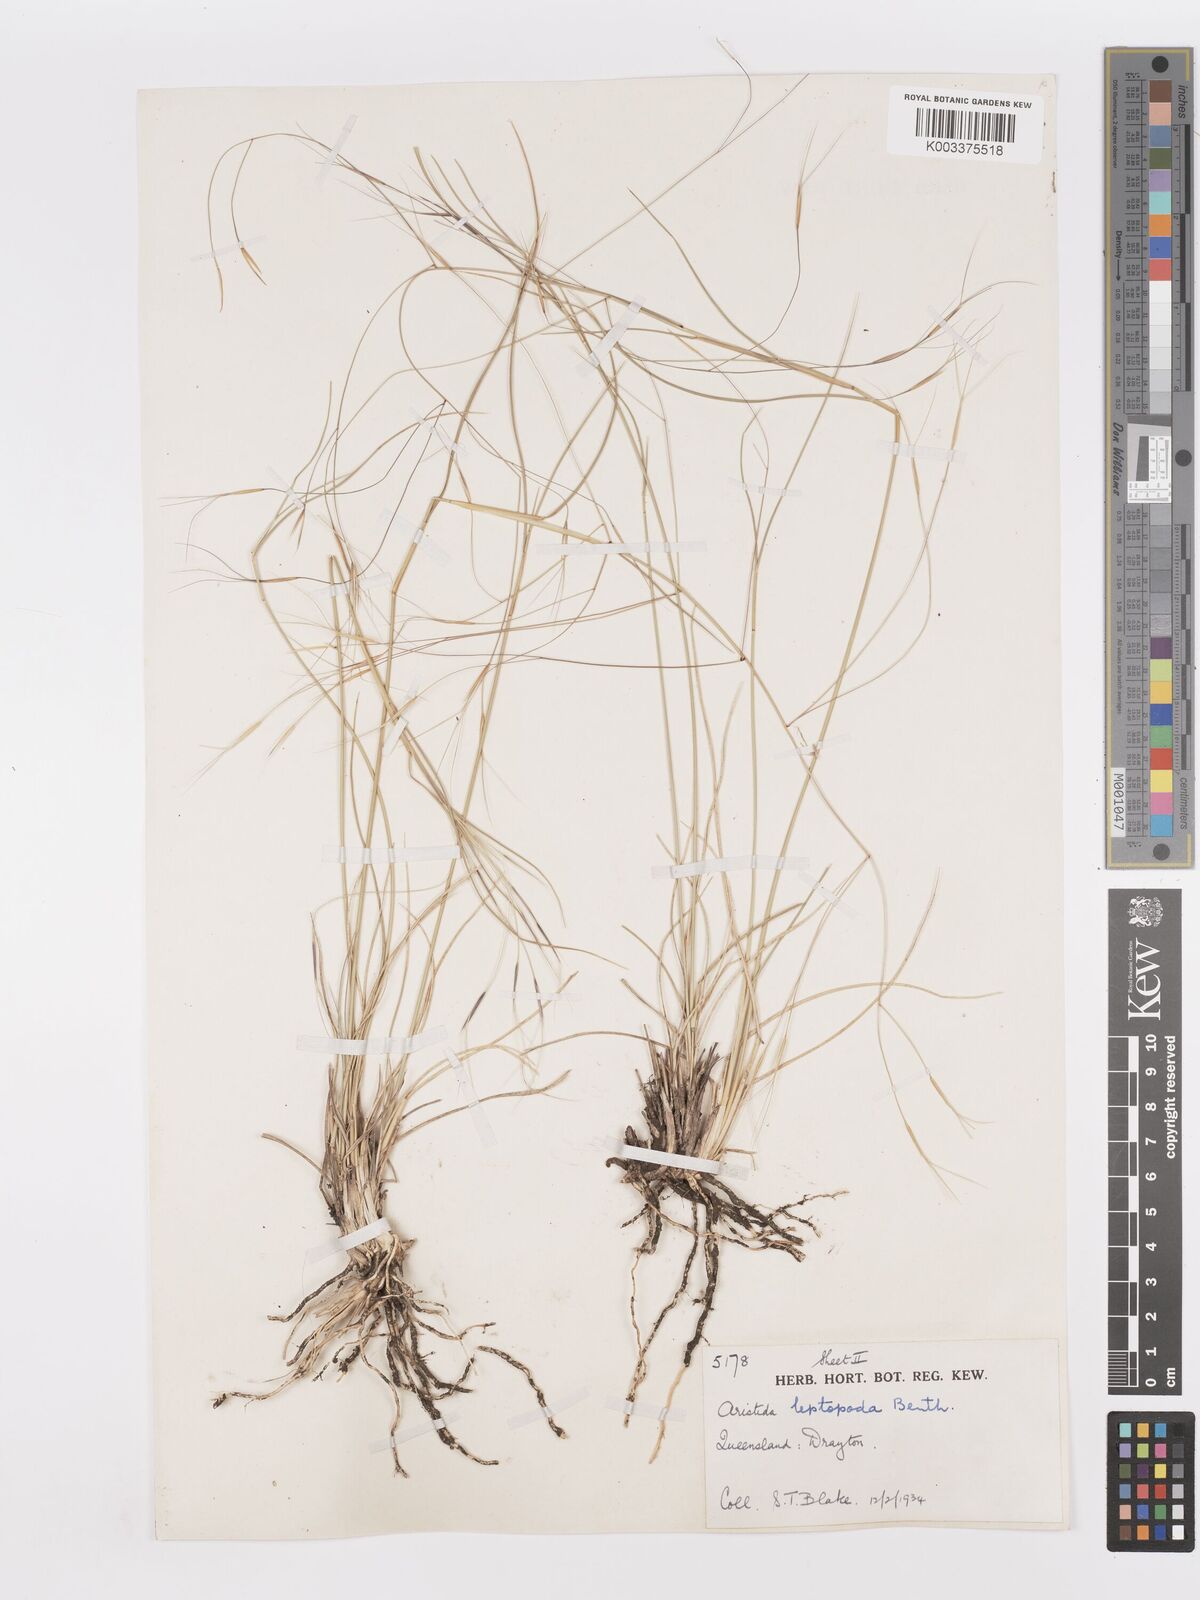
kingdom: Plantae
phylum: Tracheophyta
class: Liliopsida
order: Poales
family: Poaceae
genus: Aristida
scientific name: Aristida leptopoda
